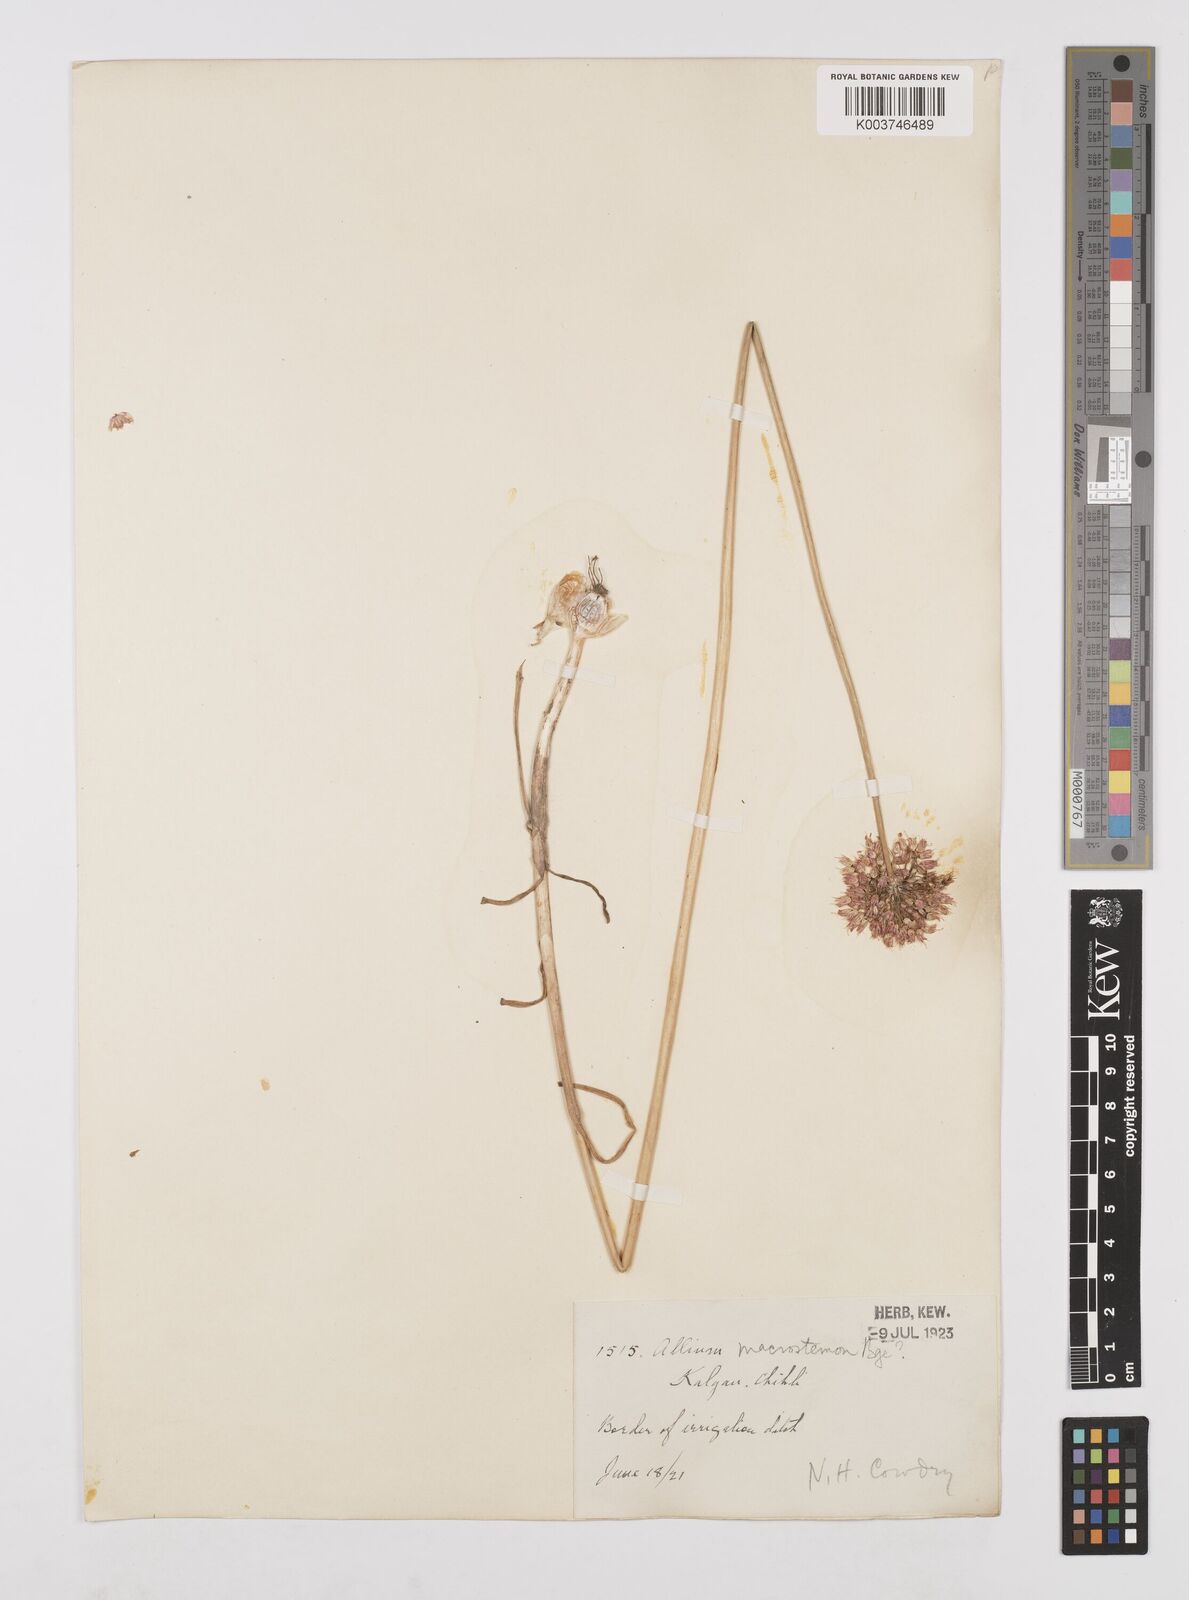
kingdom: Plantae
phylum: Tracheophyta
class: Liliopsida
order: Asparagales
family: Amaryllidaceae
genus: Allium
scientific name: Allium macrostemon
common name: Chinese garlic
